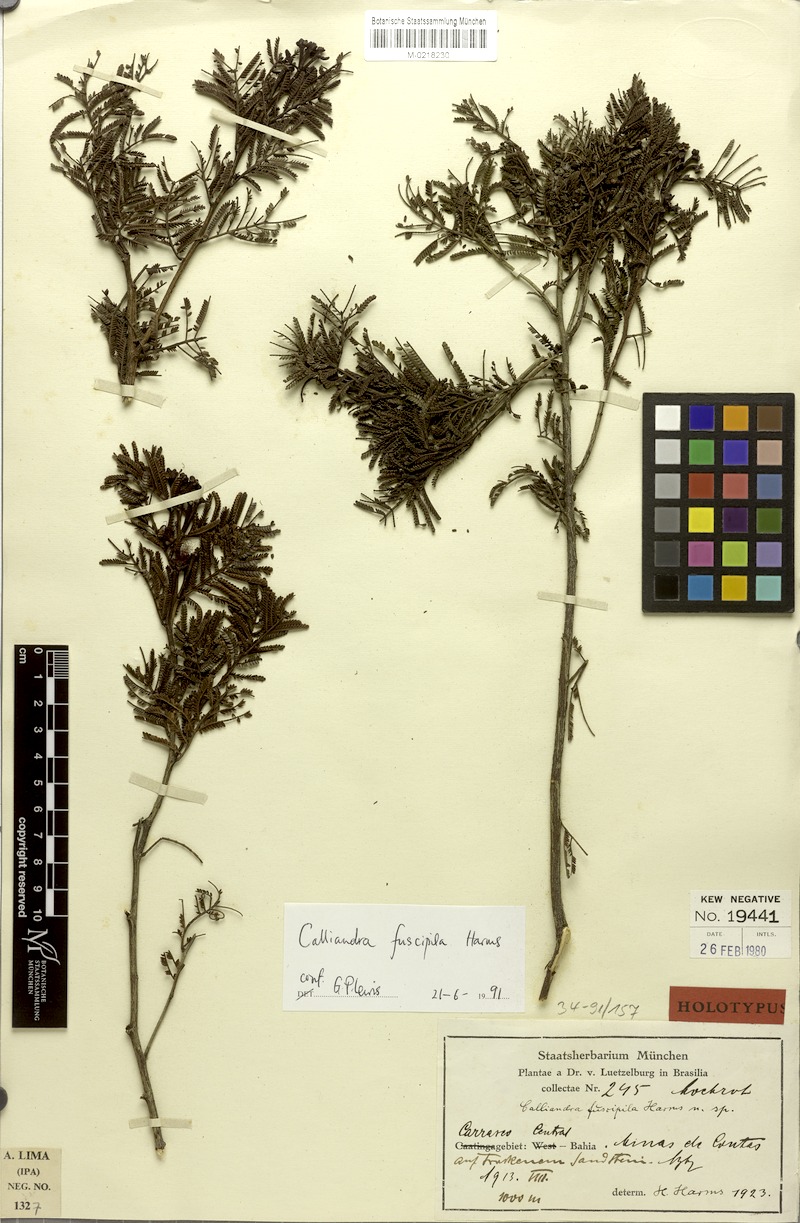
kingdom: Plantae
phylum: Tracheophyta
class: Magnoliopsida
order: Fabales
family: Fabaceae
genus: Calliandra
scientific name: Calliandra fuscipila
